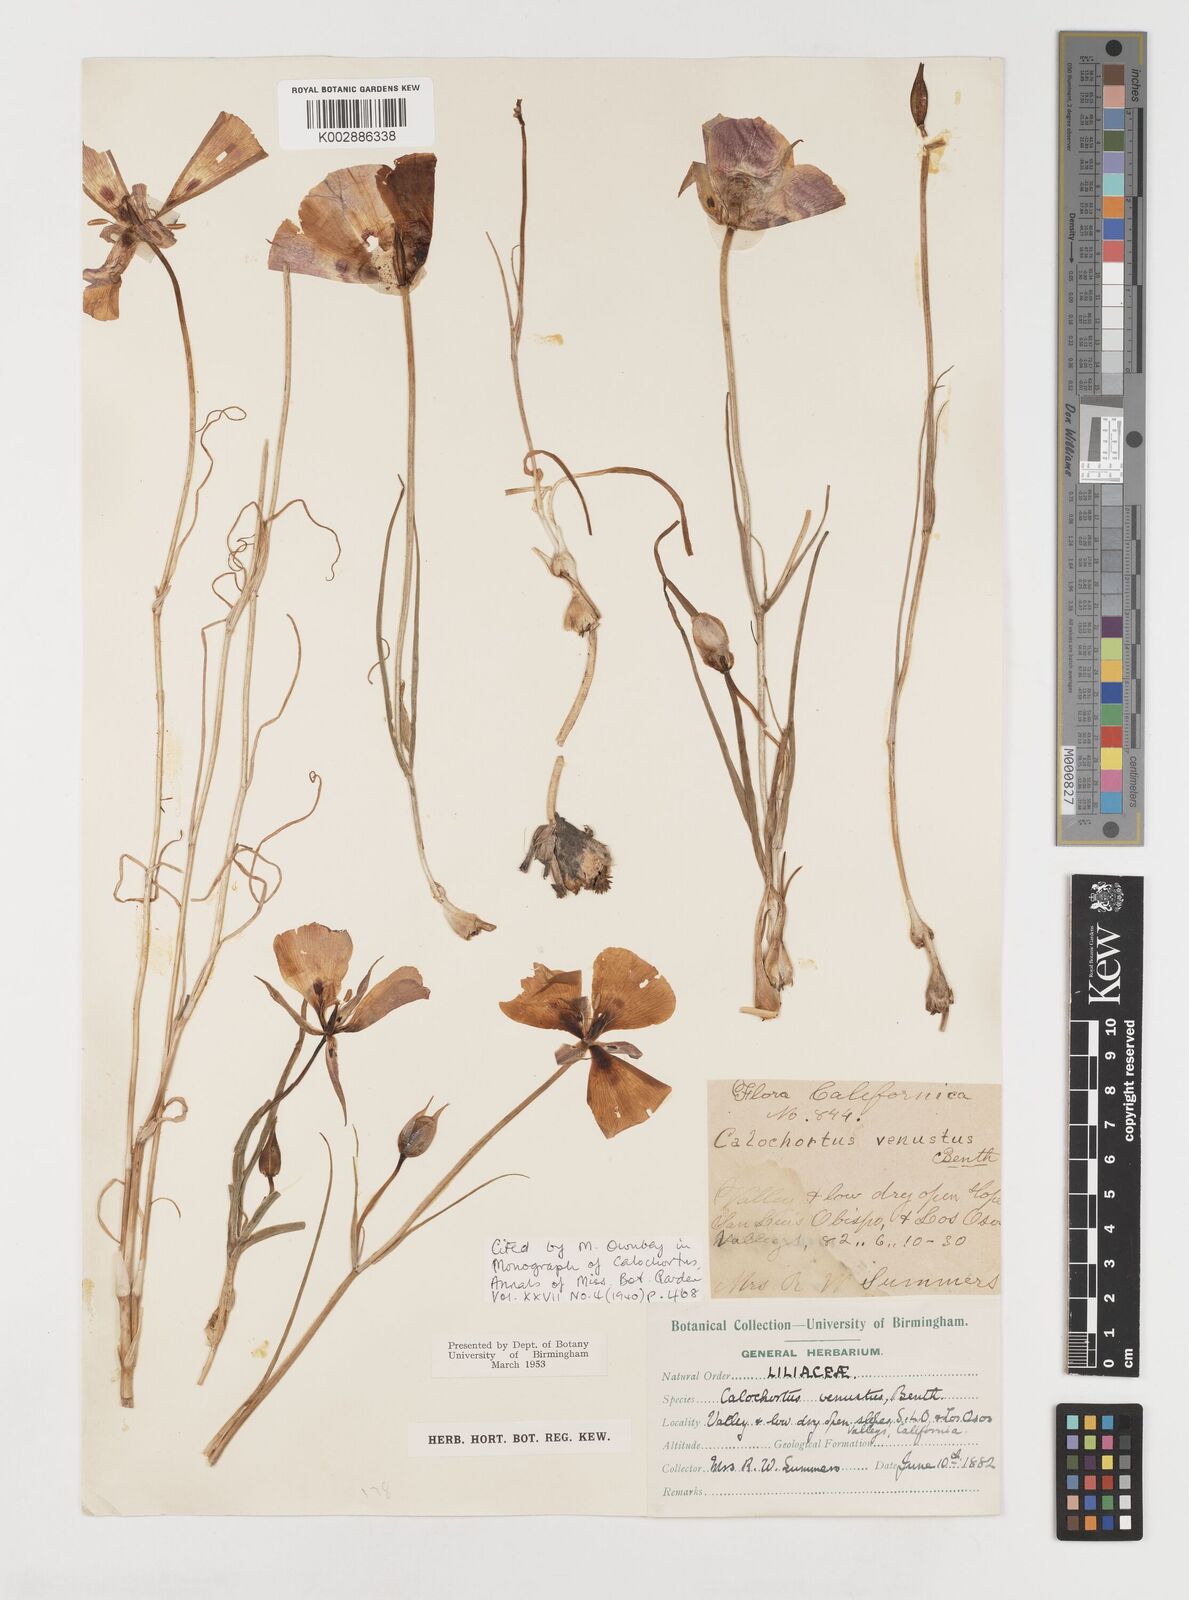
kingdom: Plantae
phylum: Tracheophyta
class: Liliopsida
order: Liliales
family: Liliaceae
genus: Calochortus
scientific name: Calochortus venustus
